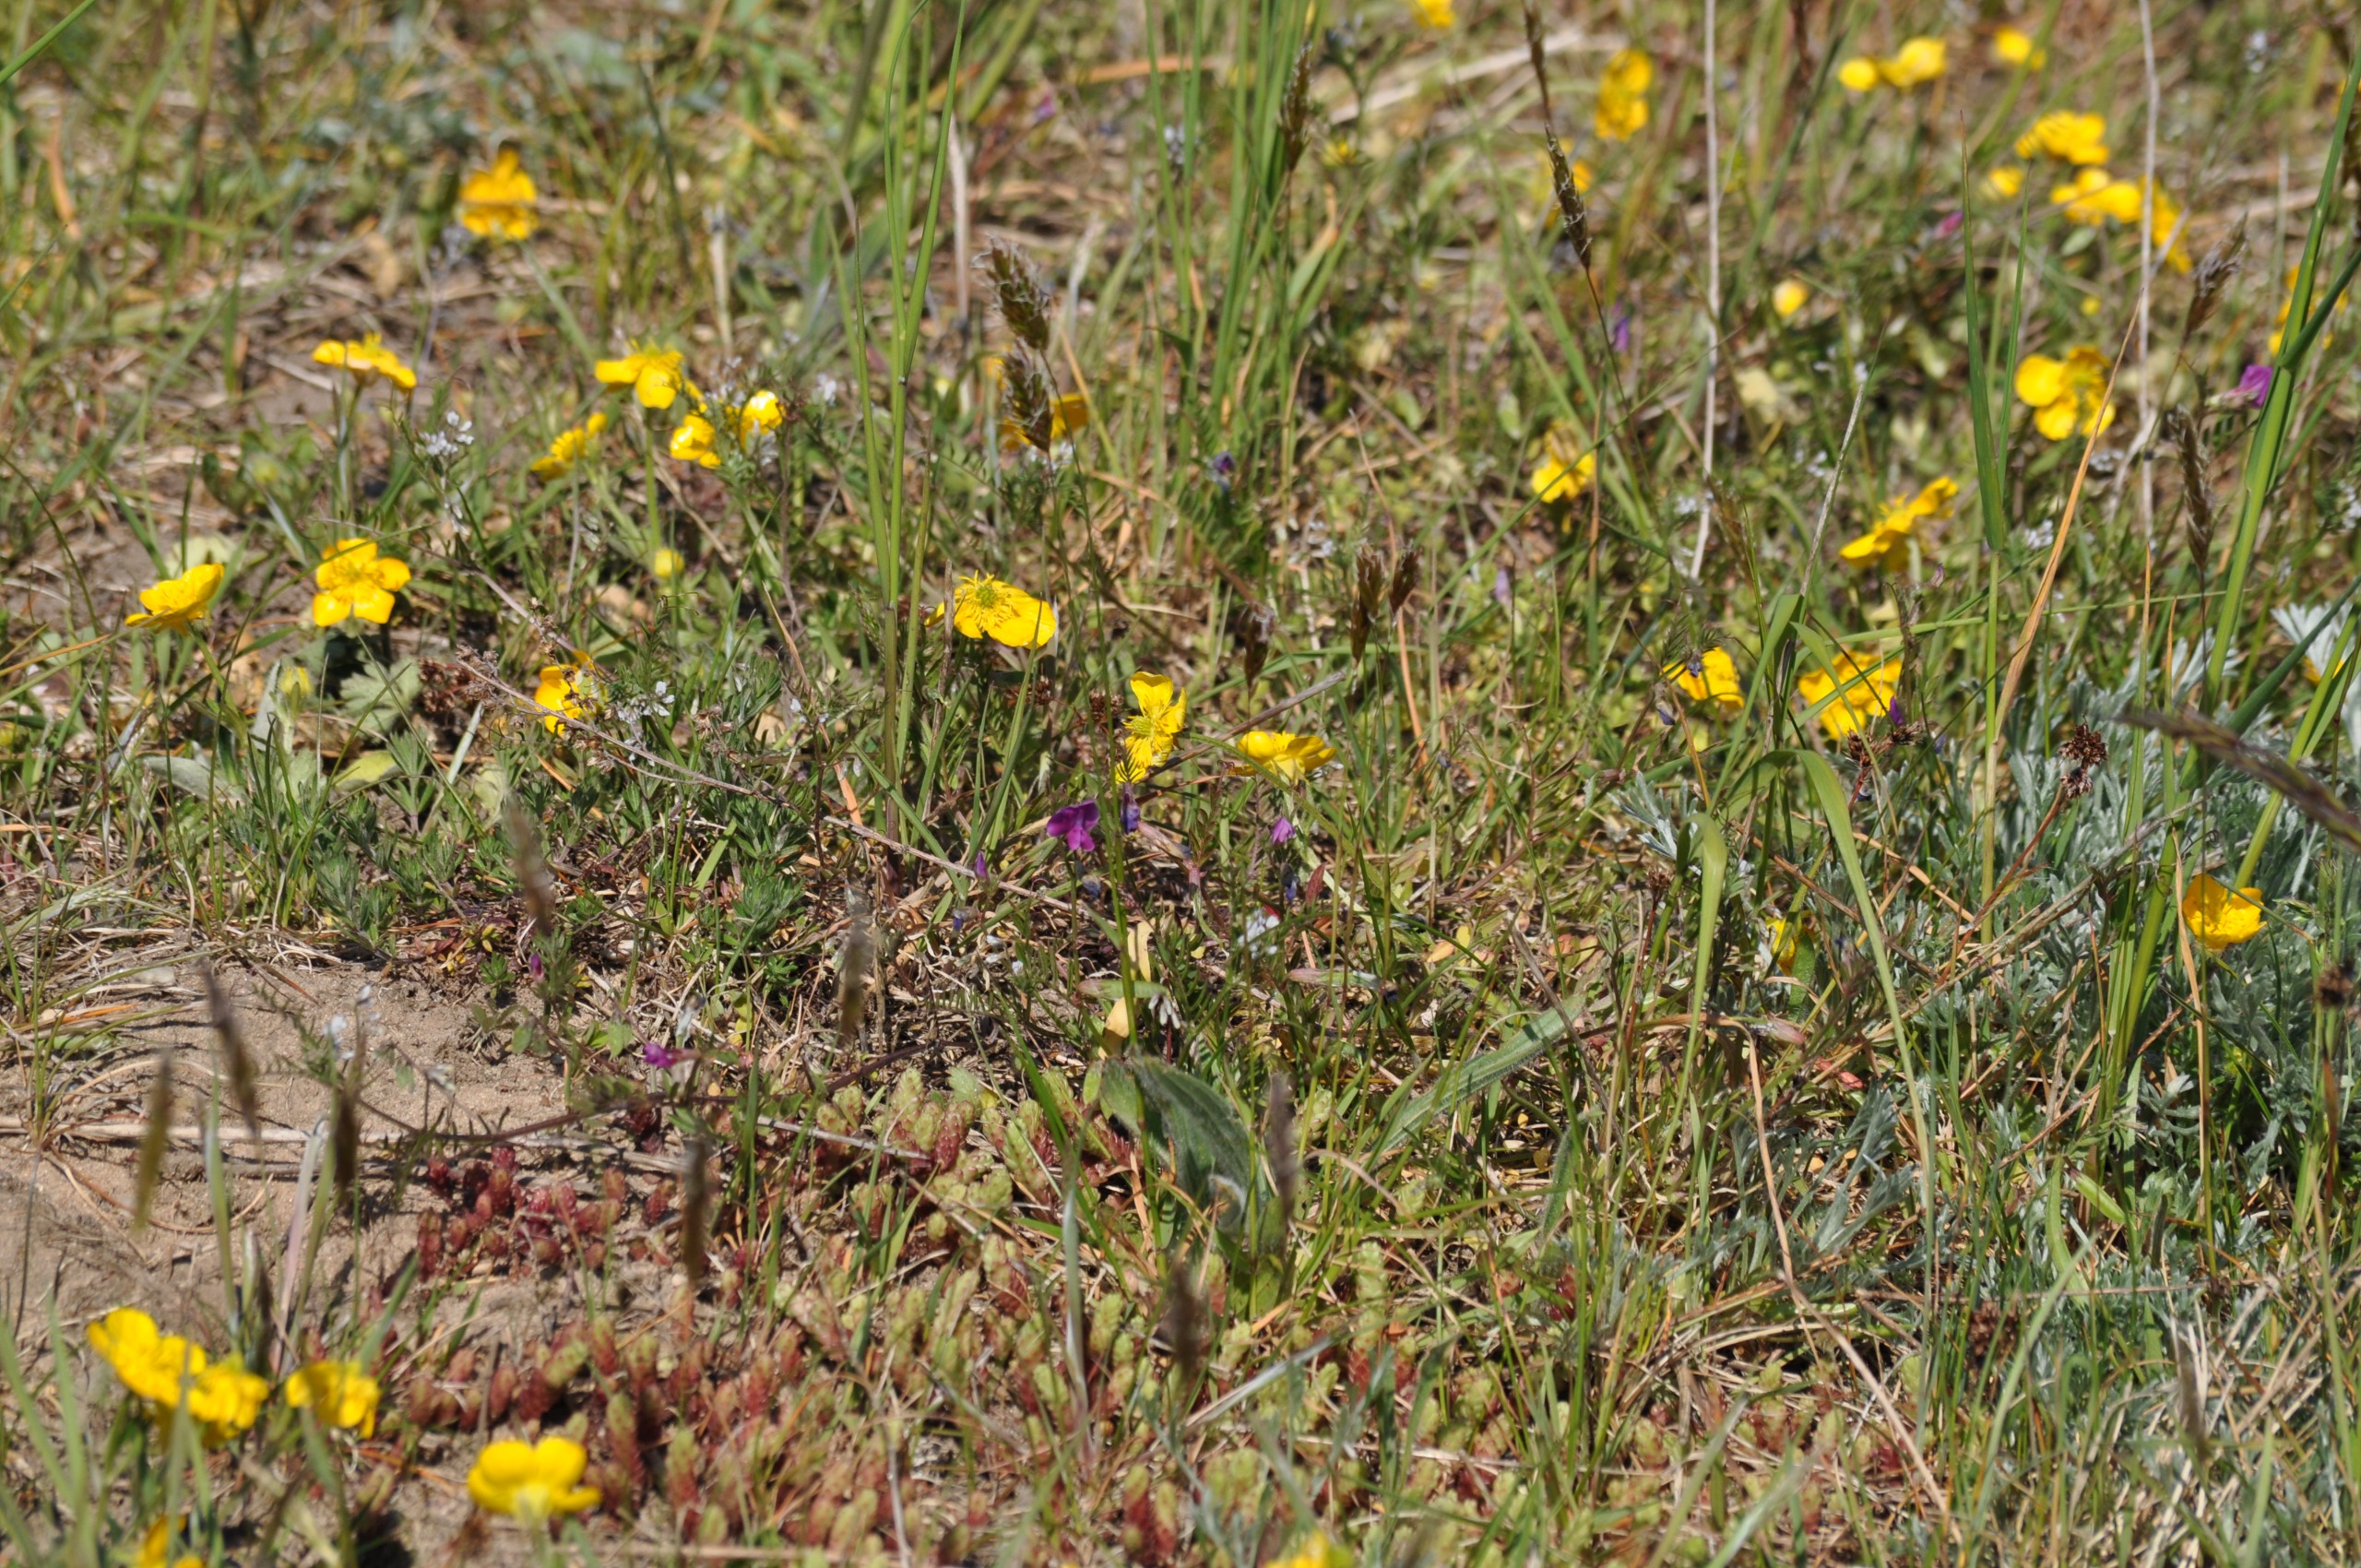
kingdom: Plantae
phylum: Tracheophyta
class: Magnoliopsida
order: Saxifragales
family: Crassulaceae
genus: Sedum
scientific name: Sedum acre
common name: Bidende stenurt
